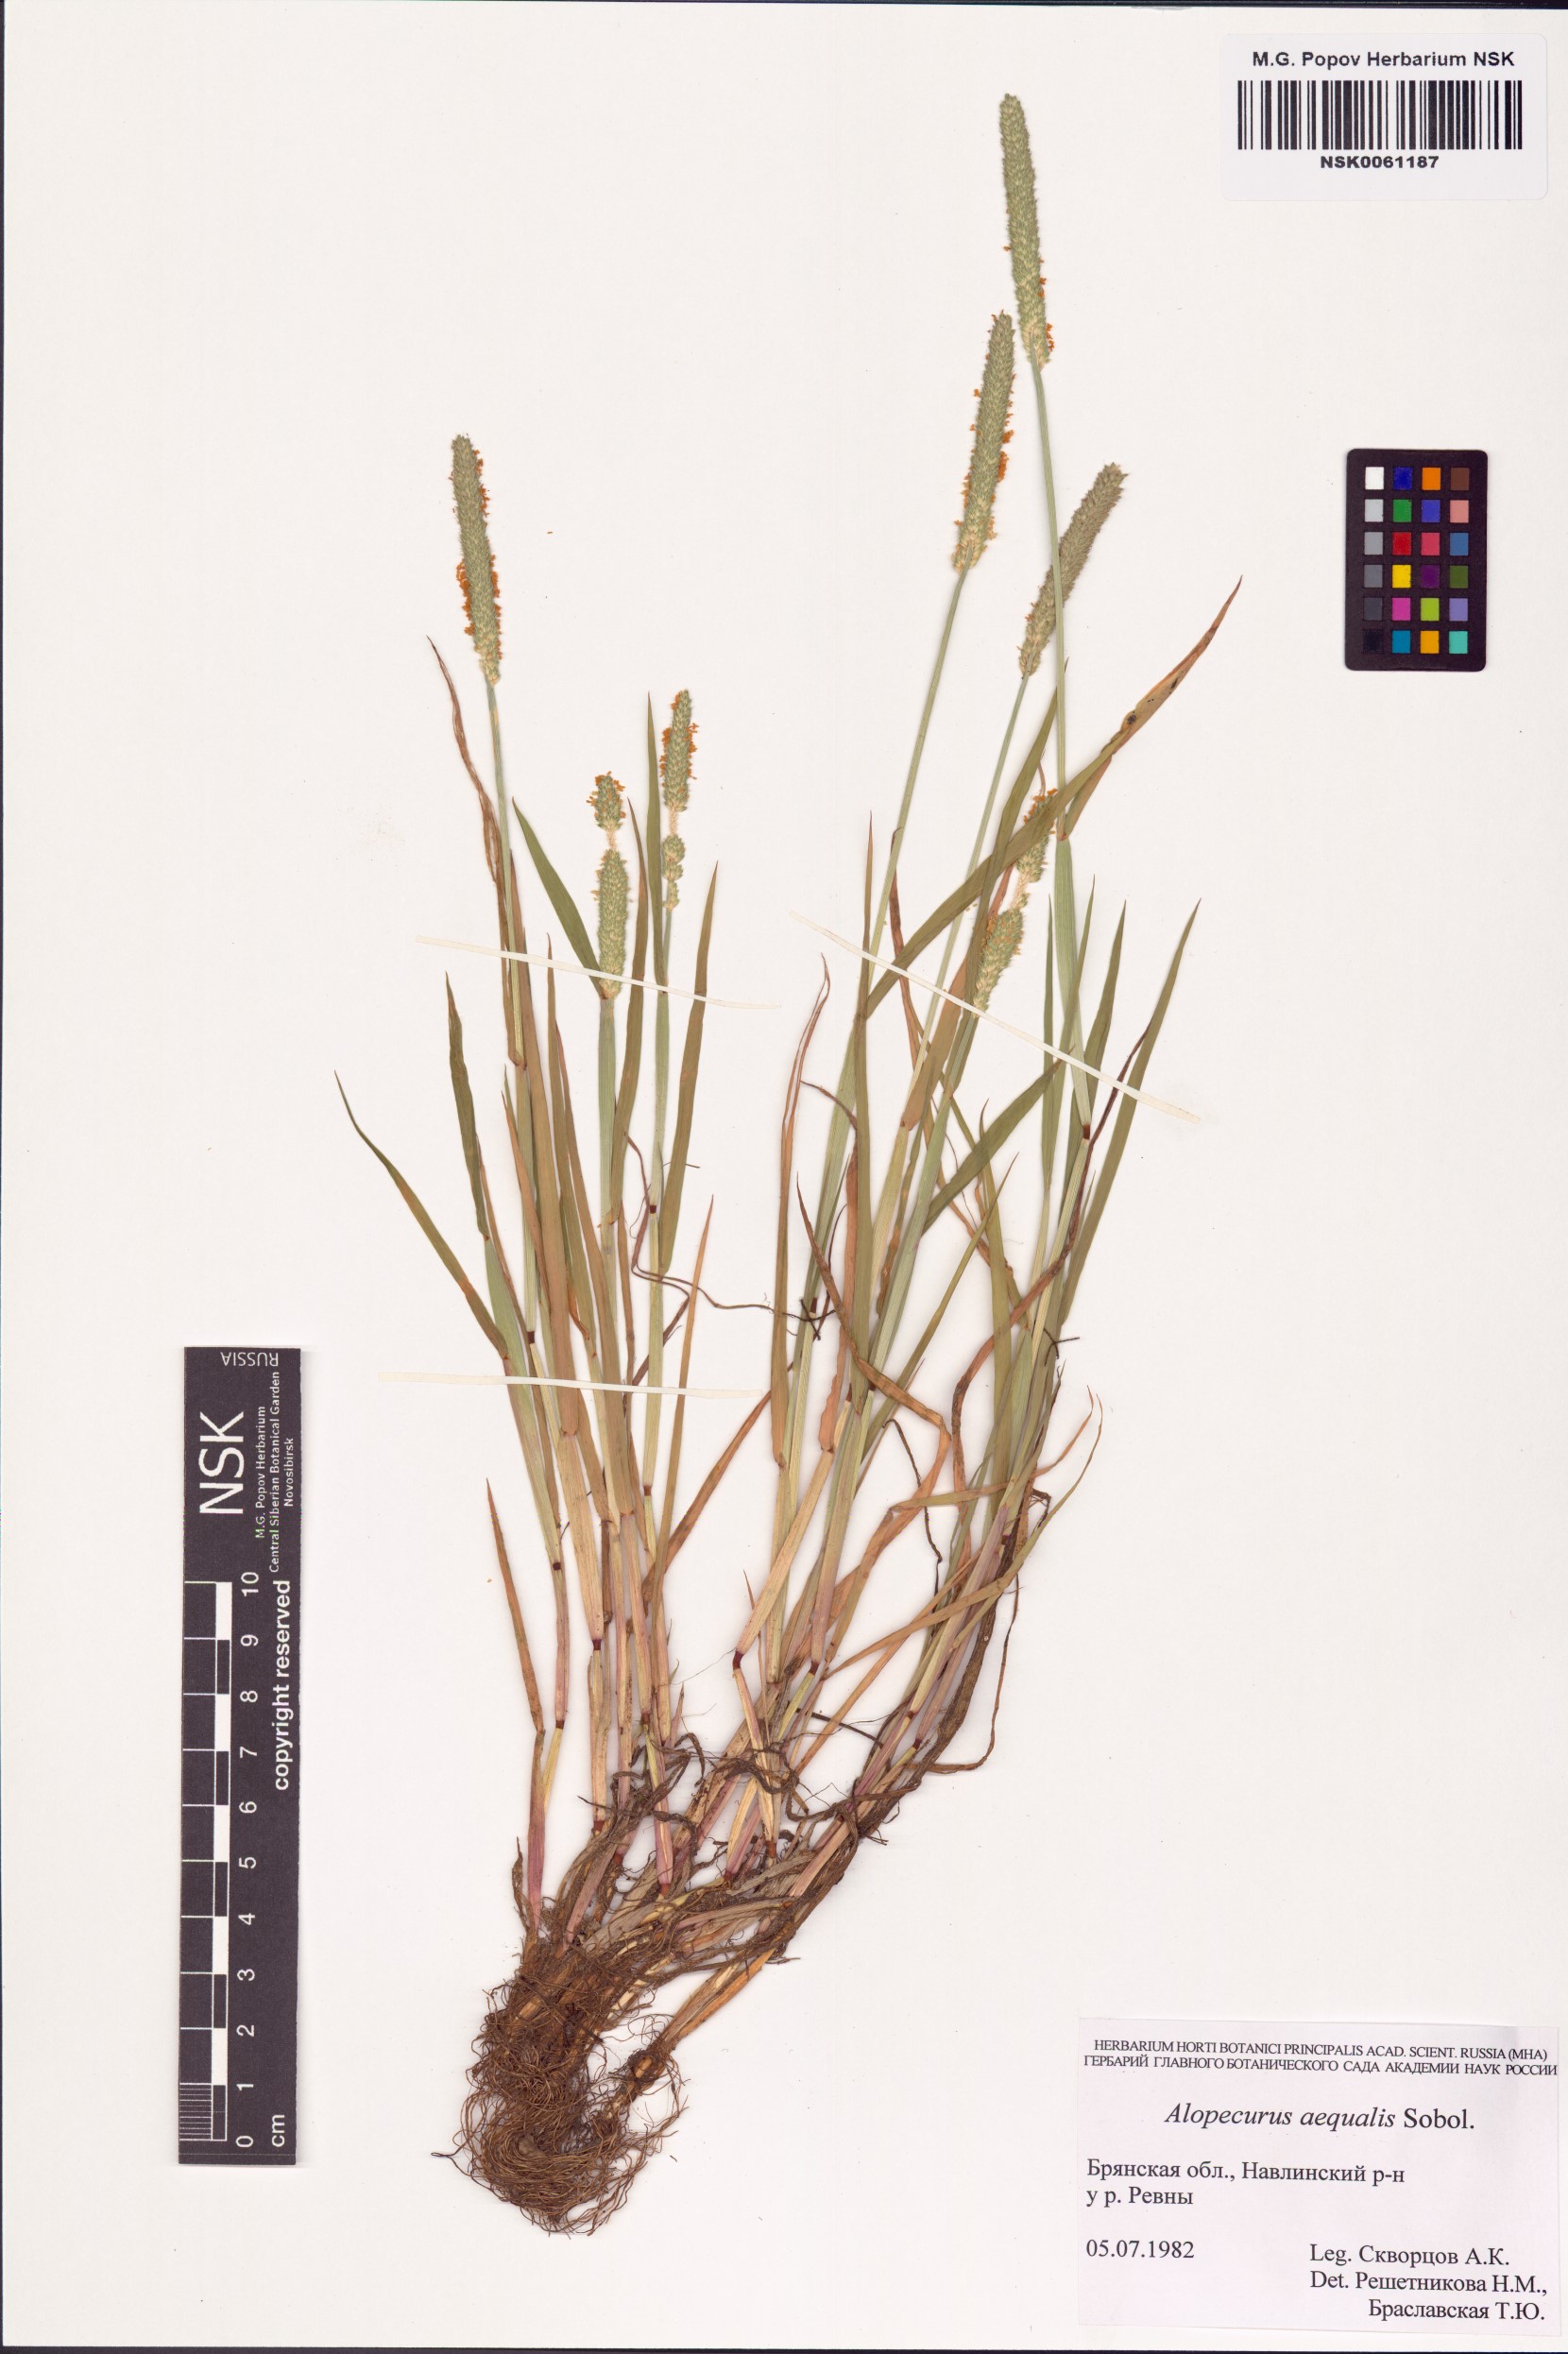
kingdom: Plantae
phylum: Tracheophyta
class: Liliopsida
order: Poales
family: Poaceae
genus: Alopecurus
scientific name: Alopecurus aequalis
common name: Orange foxtail
